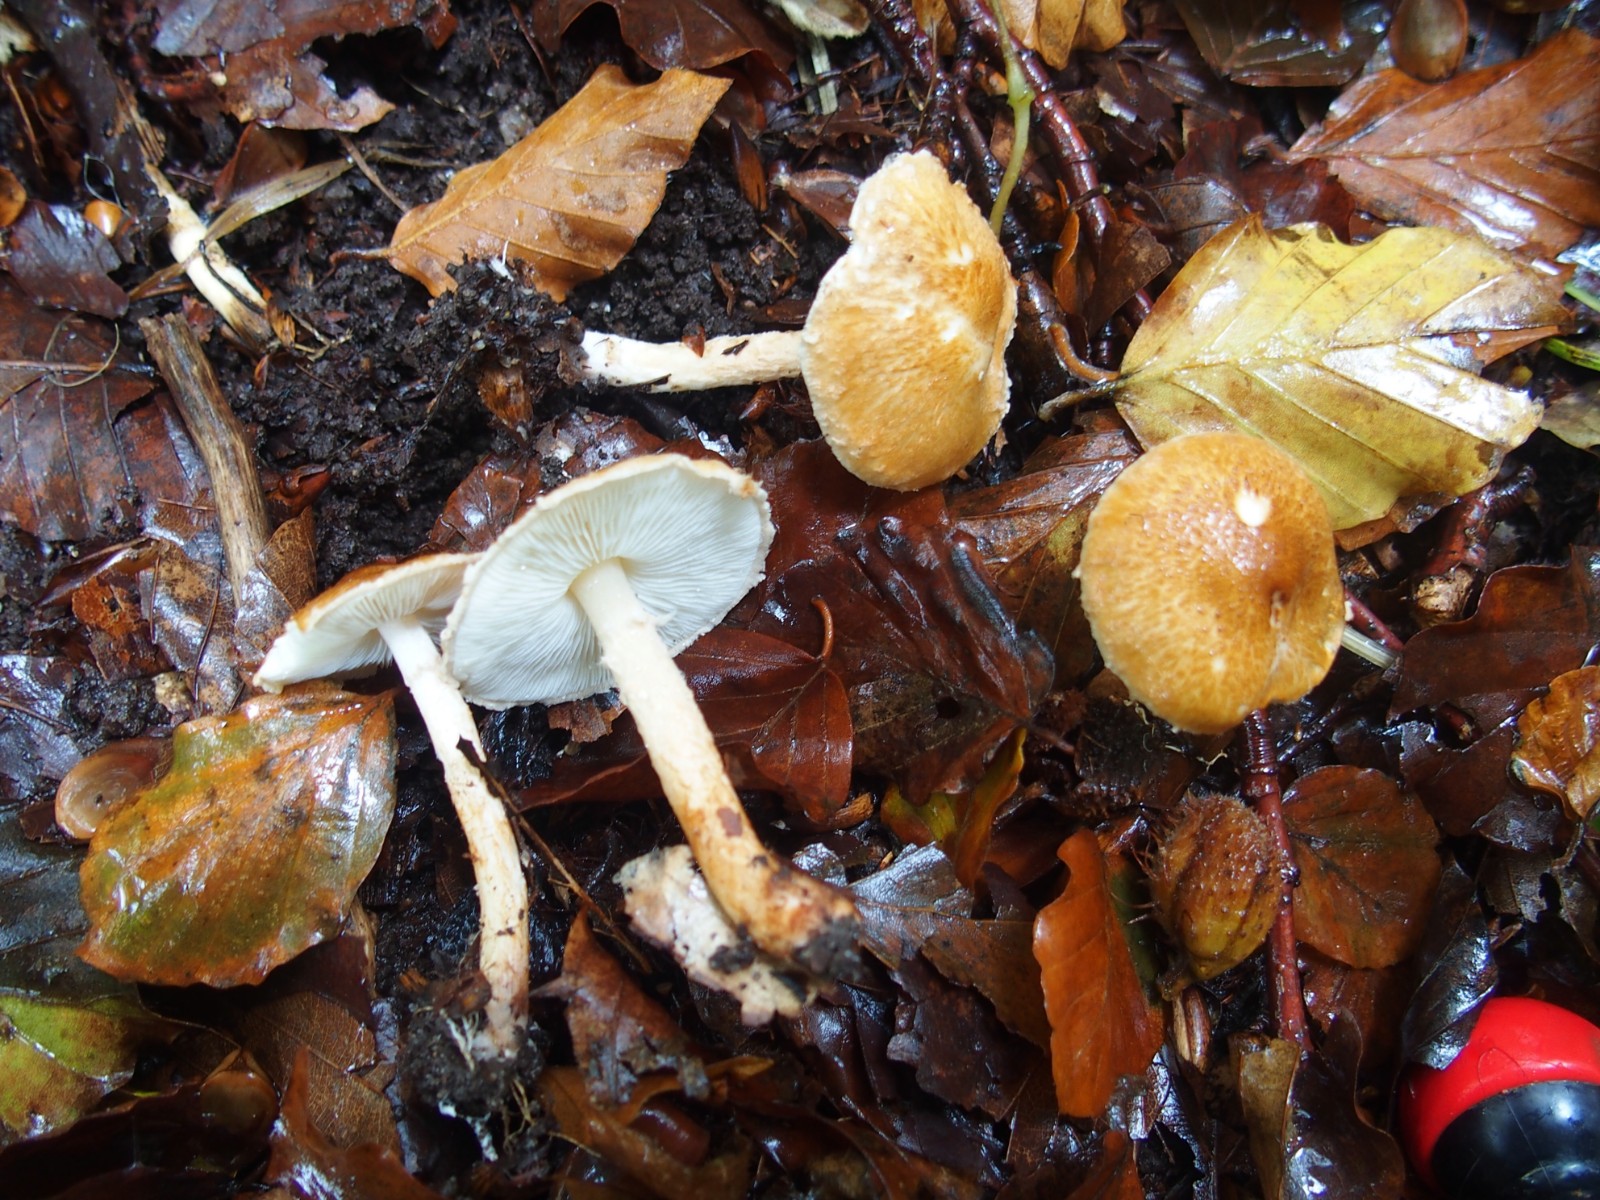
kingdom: Fungi
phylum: Basidiomycota
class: Agaricomycetes
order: Agaricales
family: Agaricaceae
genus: Leucocoprinus
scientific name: Leucocoprinus straminellus
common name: rustbrun parasolhat
